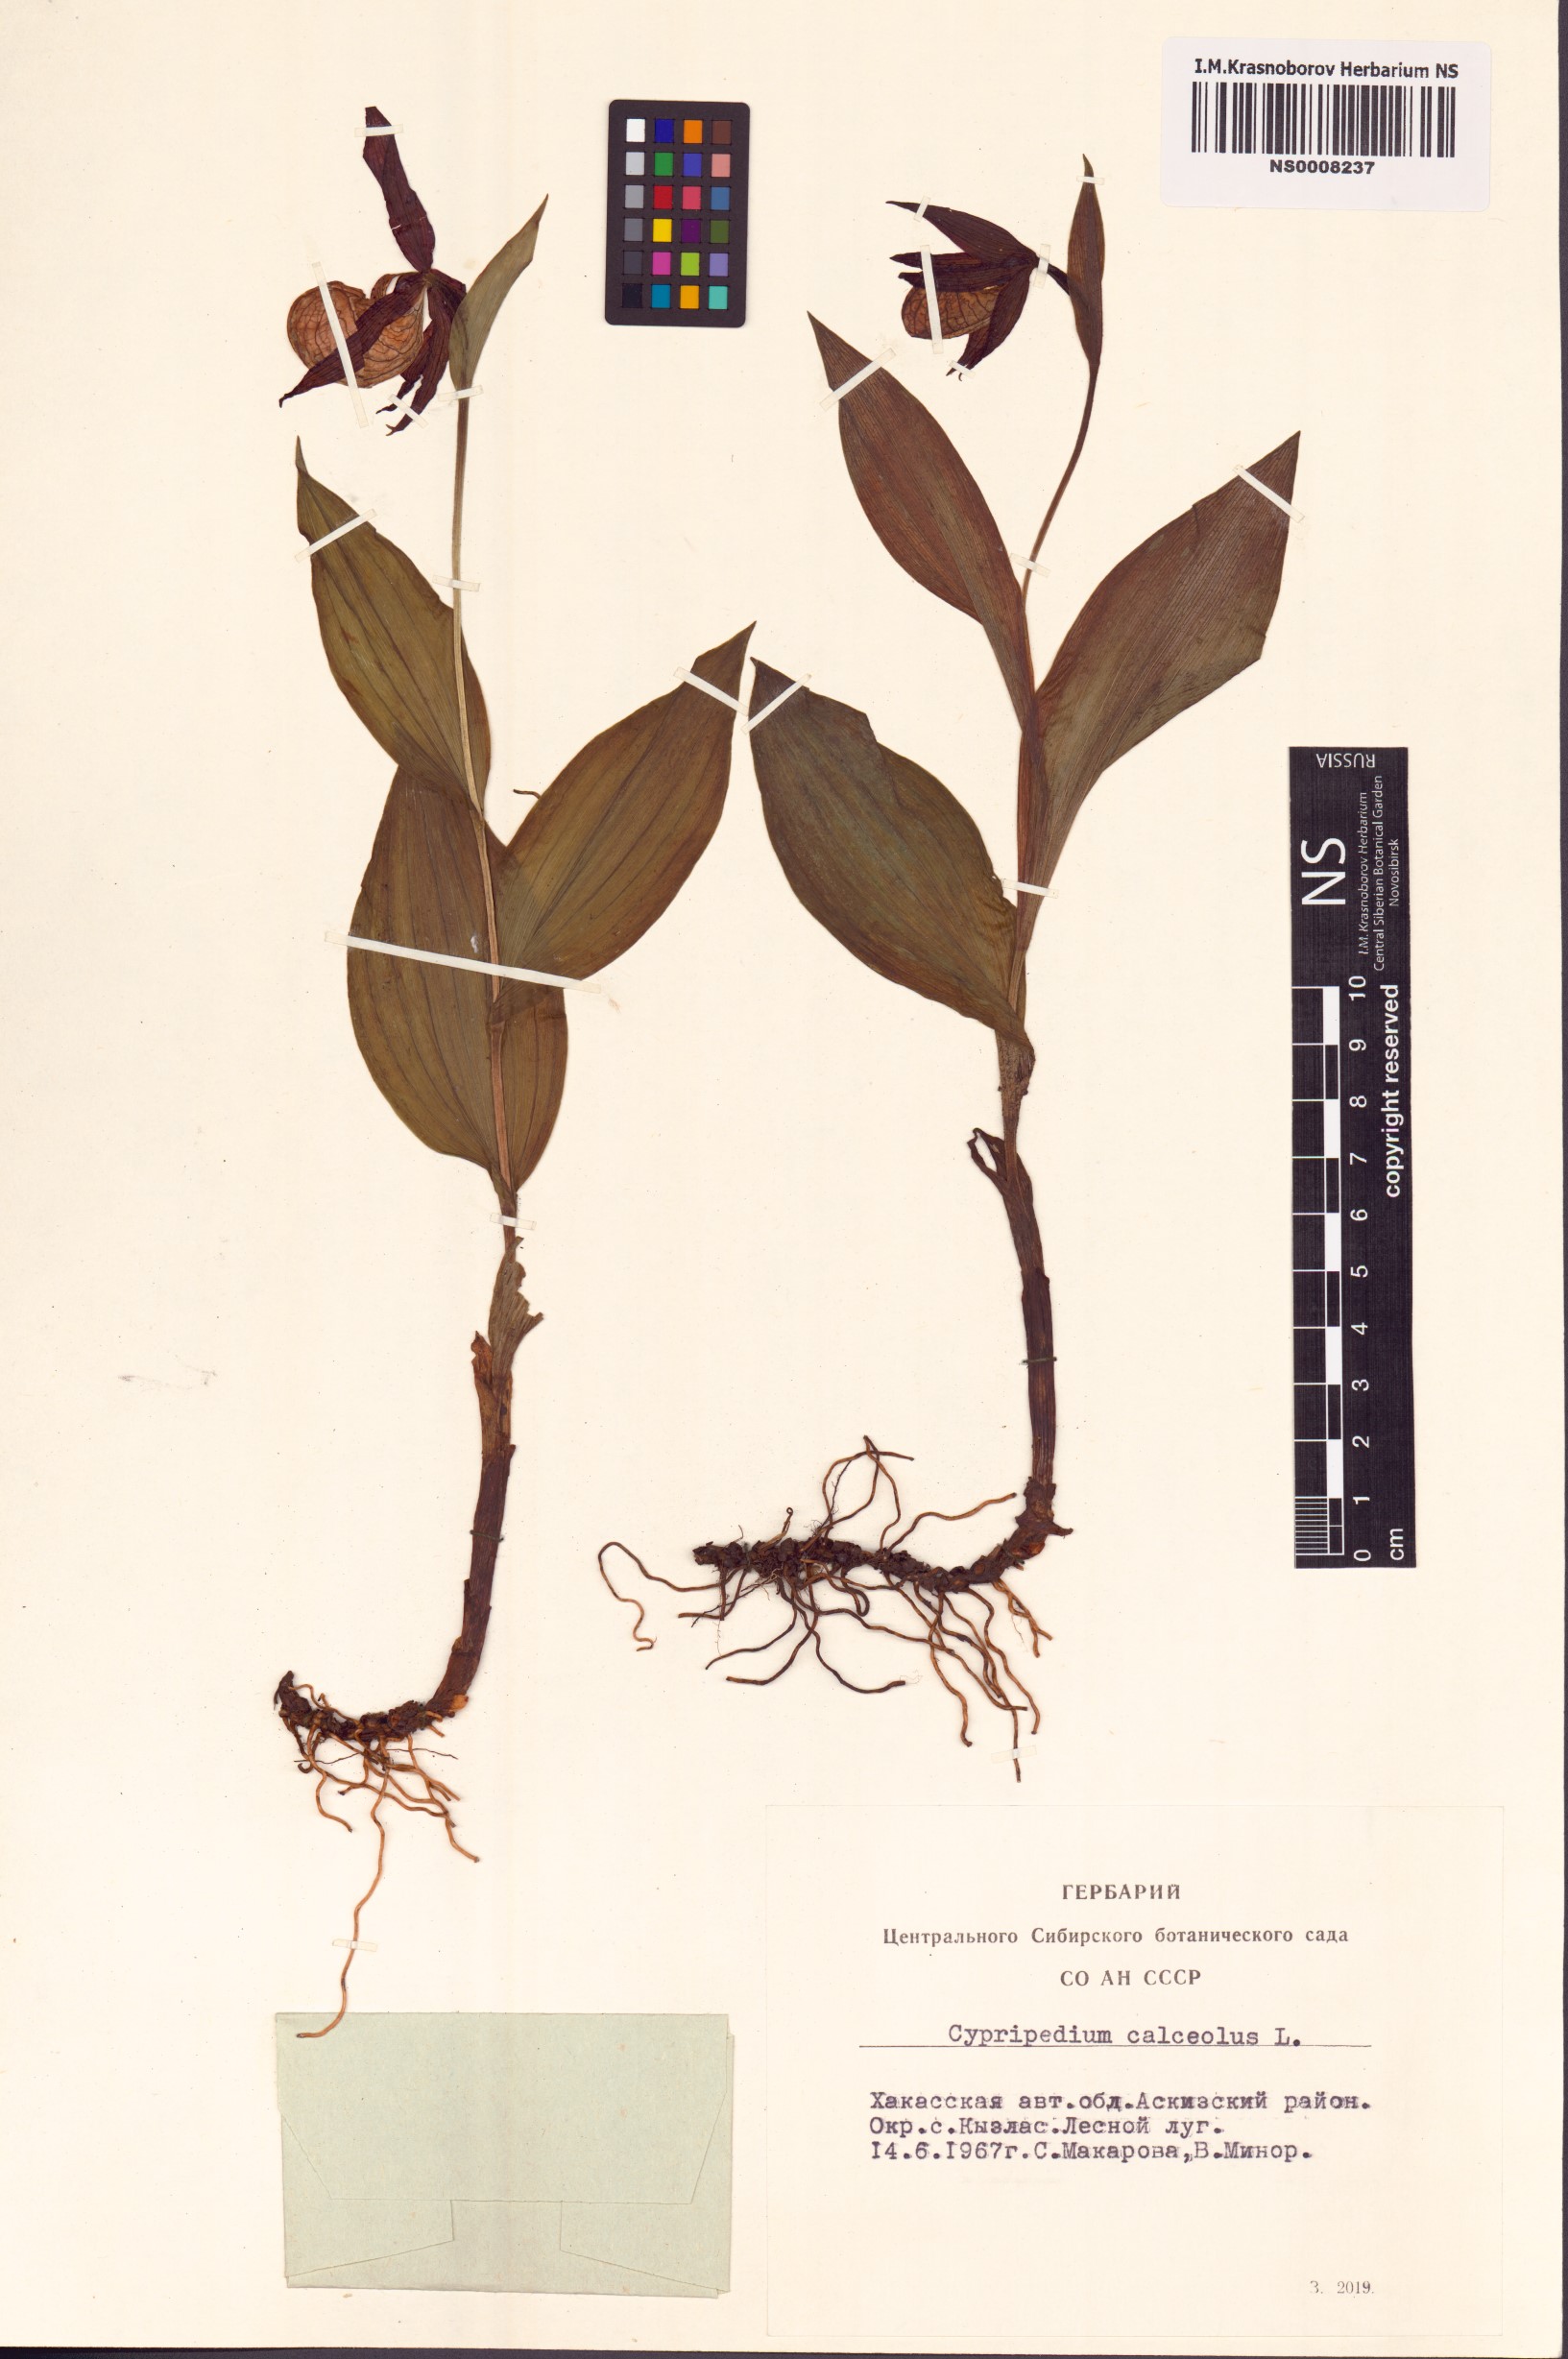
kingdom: Plantae
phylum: Tracheophyta
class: Liliopsida
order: Asparagales
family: Orchidaceae
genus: Cypripedium
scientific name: Cypripedium calceolus
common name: Lady's-slipper
